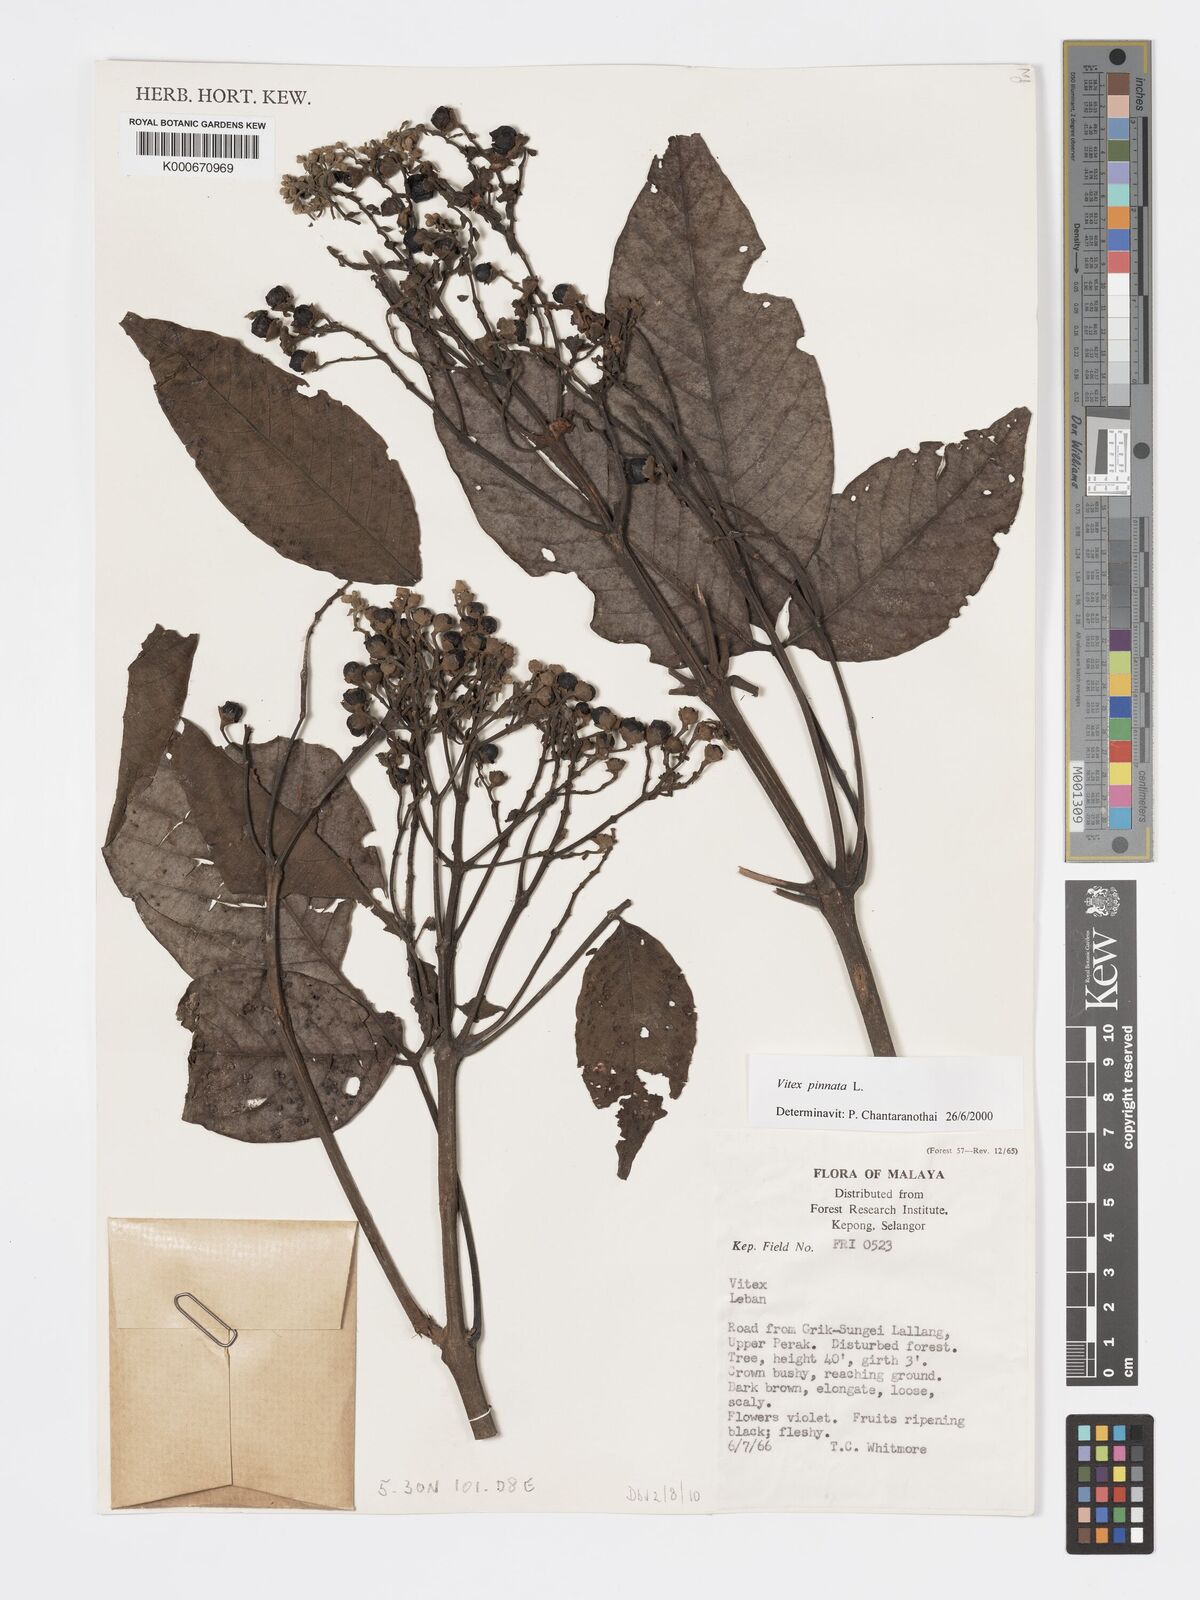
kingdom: Plantae
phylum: Tracheophyta
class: Magnoliopsida
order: Lamiales
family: Lamiaceae
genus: Vitex
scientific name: Vitex pinnata
